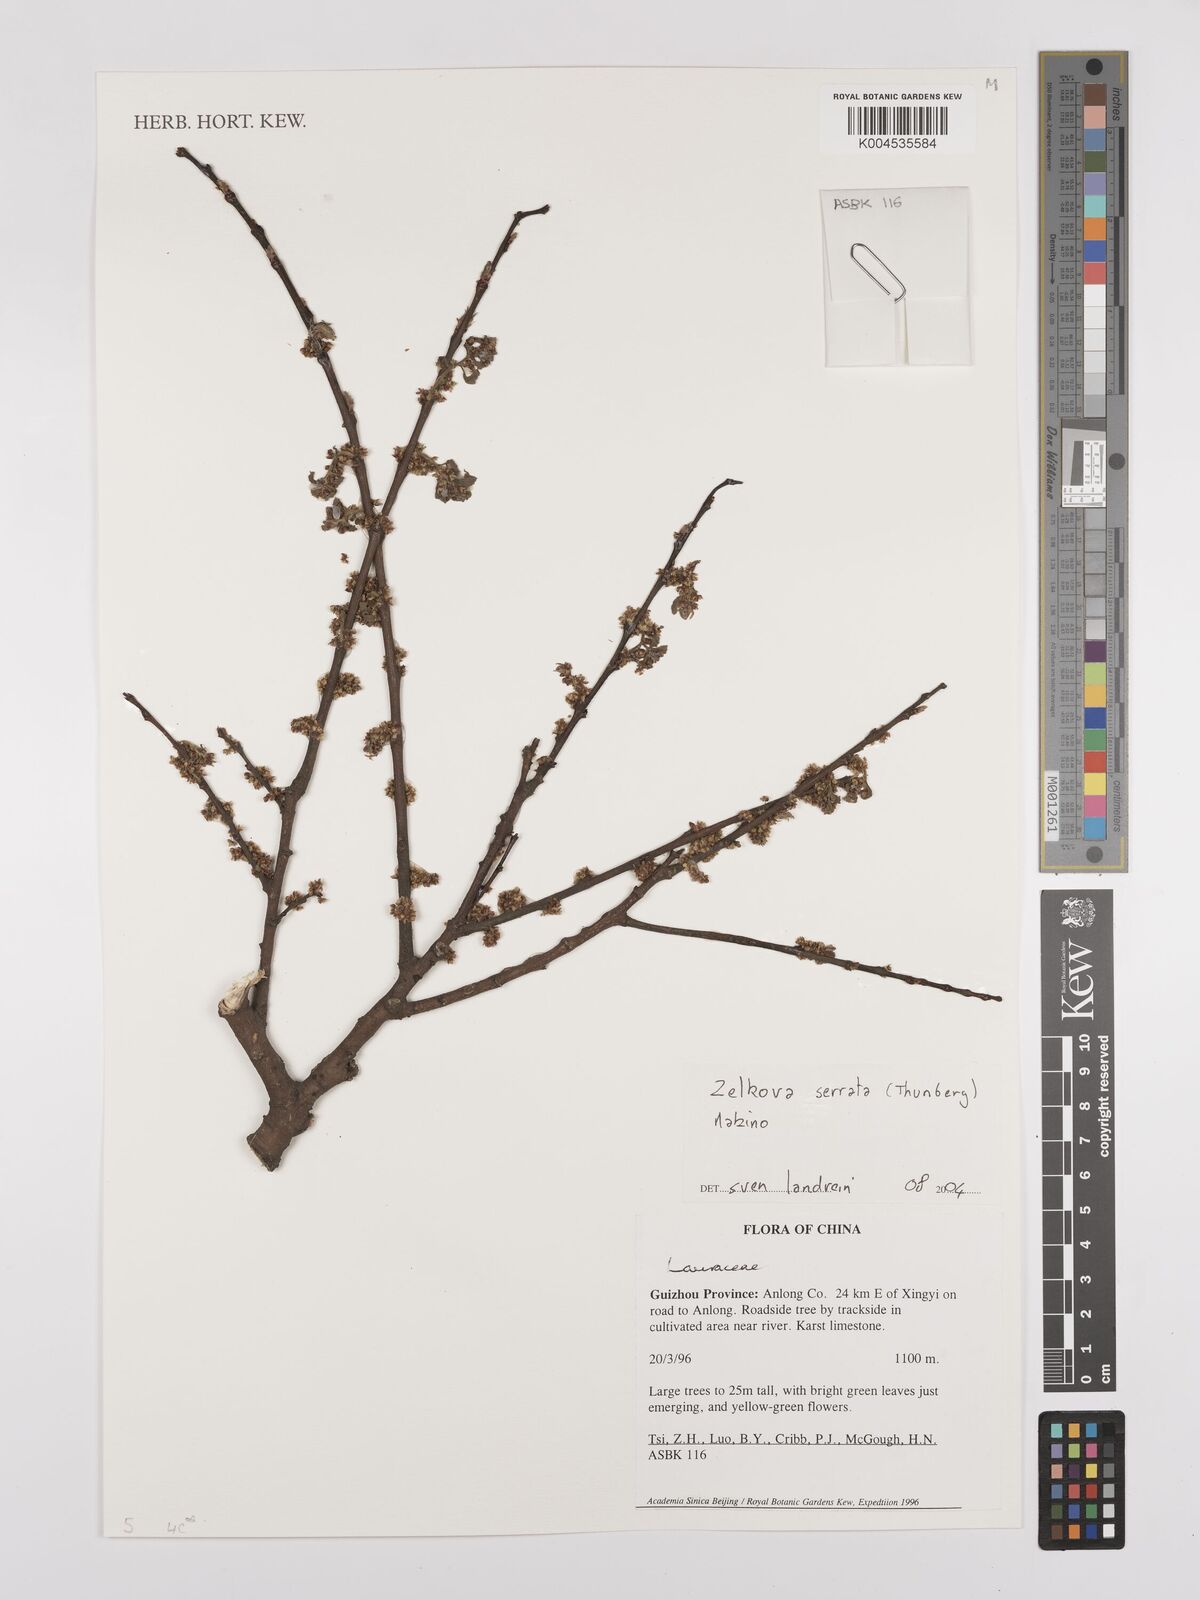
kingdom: Plantae
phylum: Tracheophyta
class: Magnoliopsida
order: Rosales
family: Ulmaceae
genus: Zelkova
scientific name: Zelkova serrata
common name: Japanese zelkova
